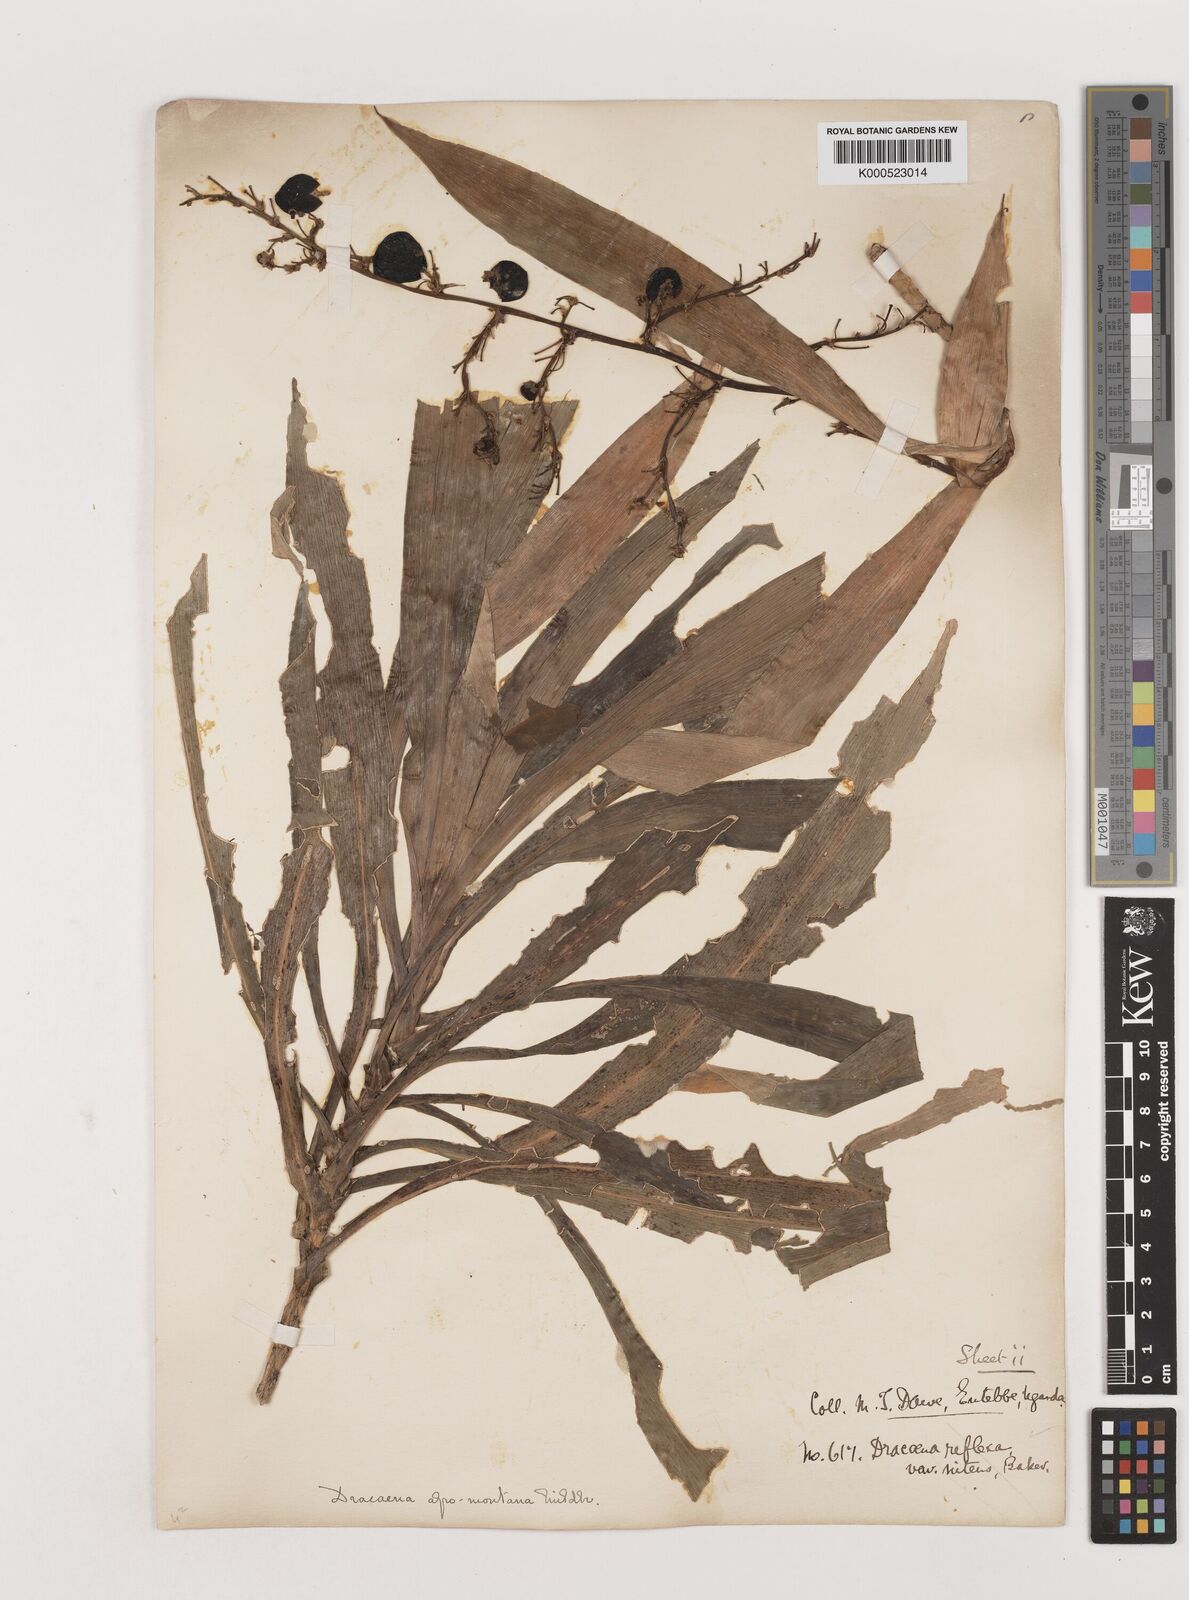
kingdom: Plantae
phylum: Tracheophyta
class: Liliopsida
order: Asparagales
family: Asparagaceae
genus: Dracaena
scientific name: Dracaena afromontana
